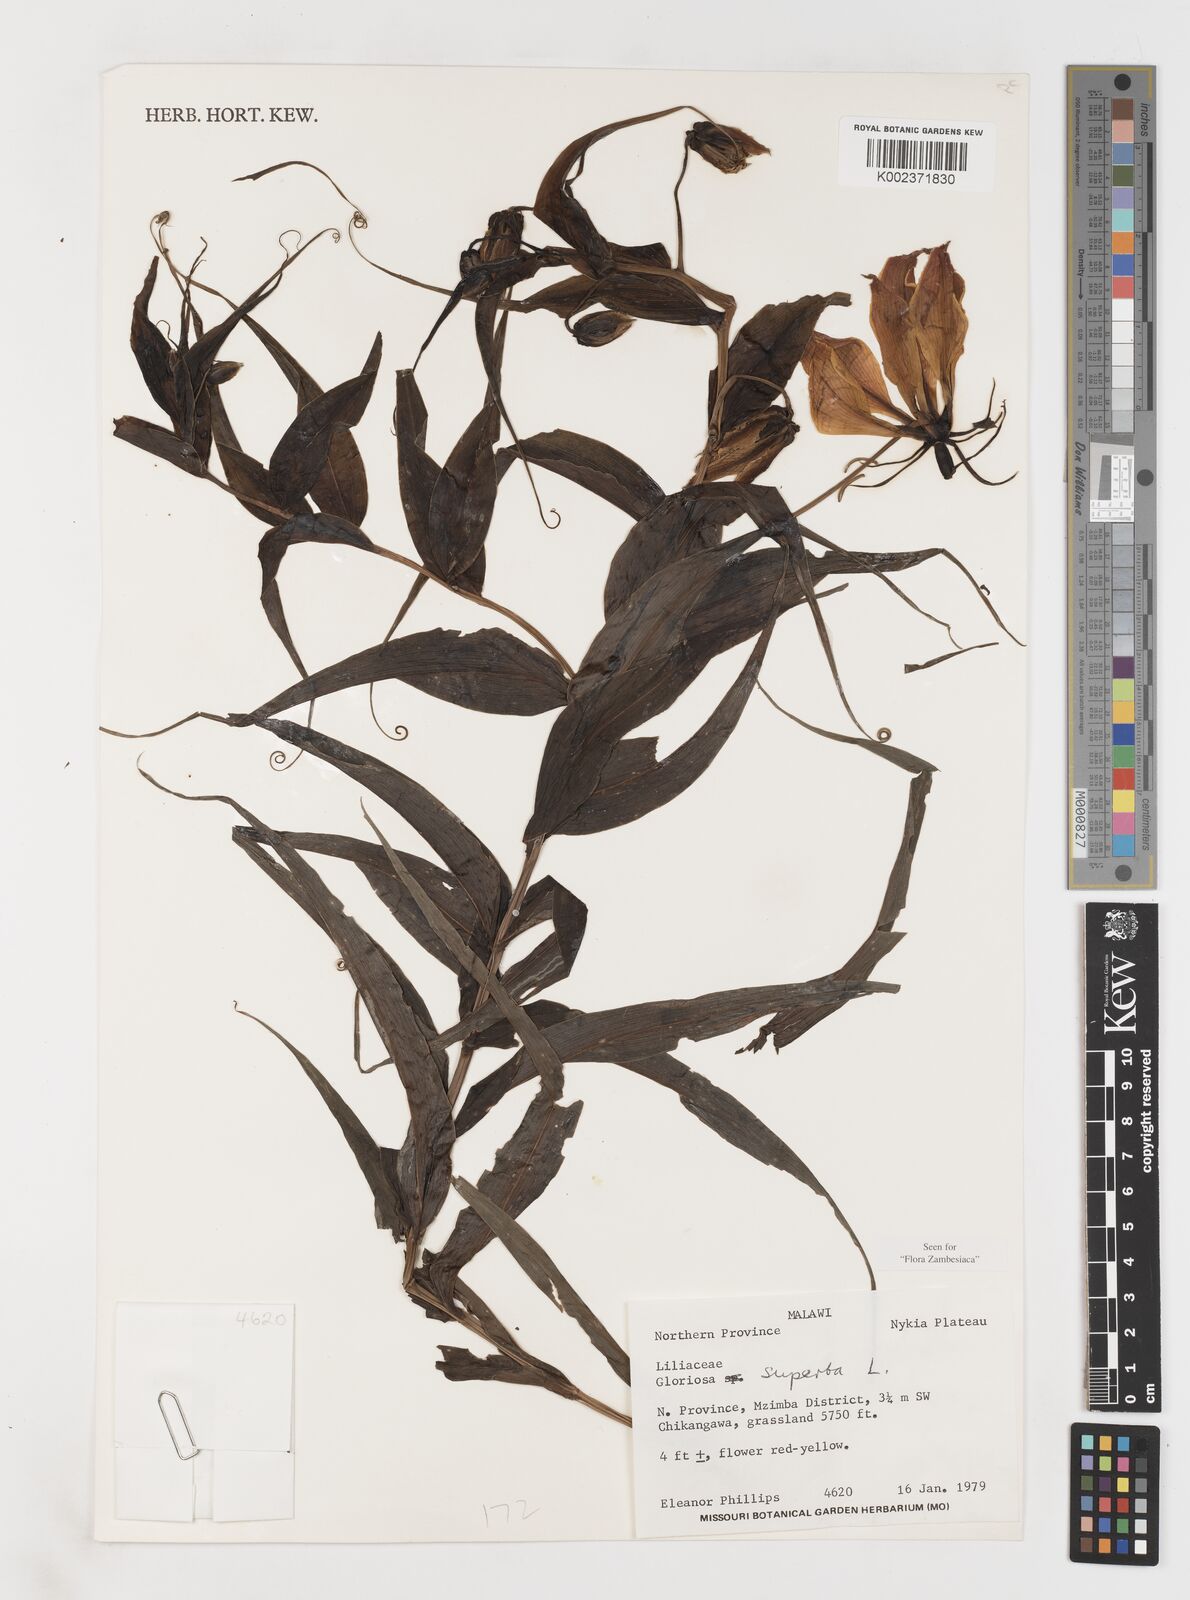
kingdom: Plantae
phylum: Tracheophyta
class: Liliopsida
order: Liliales
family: Colchicaceae
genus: Gloriosa
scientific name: Gloriosa simplex
